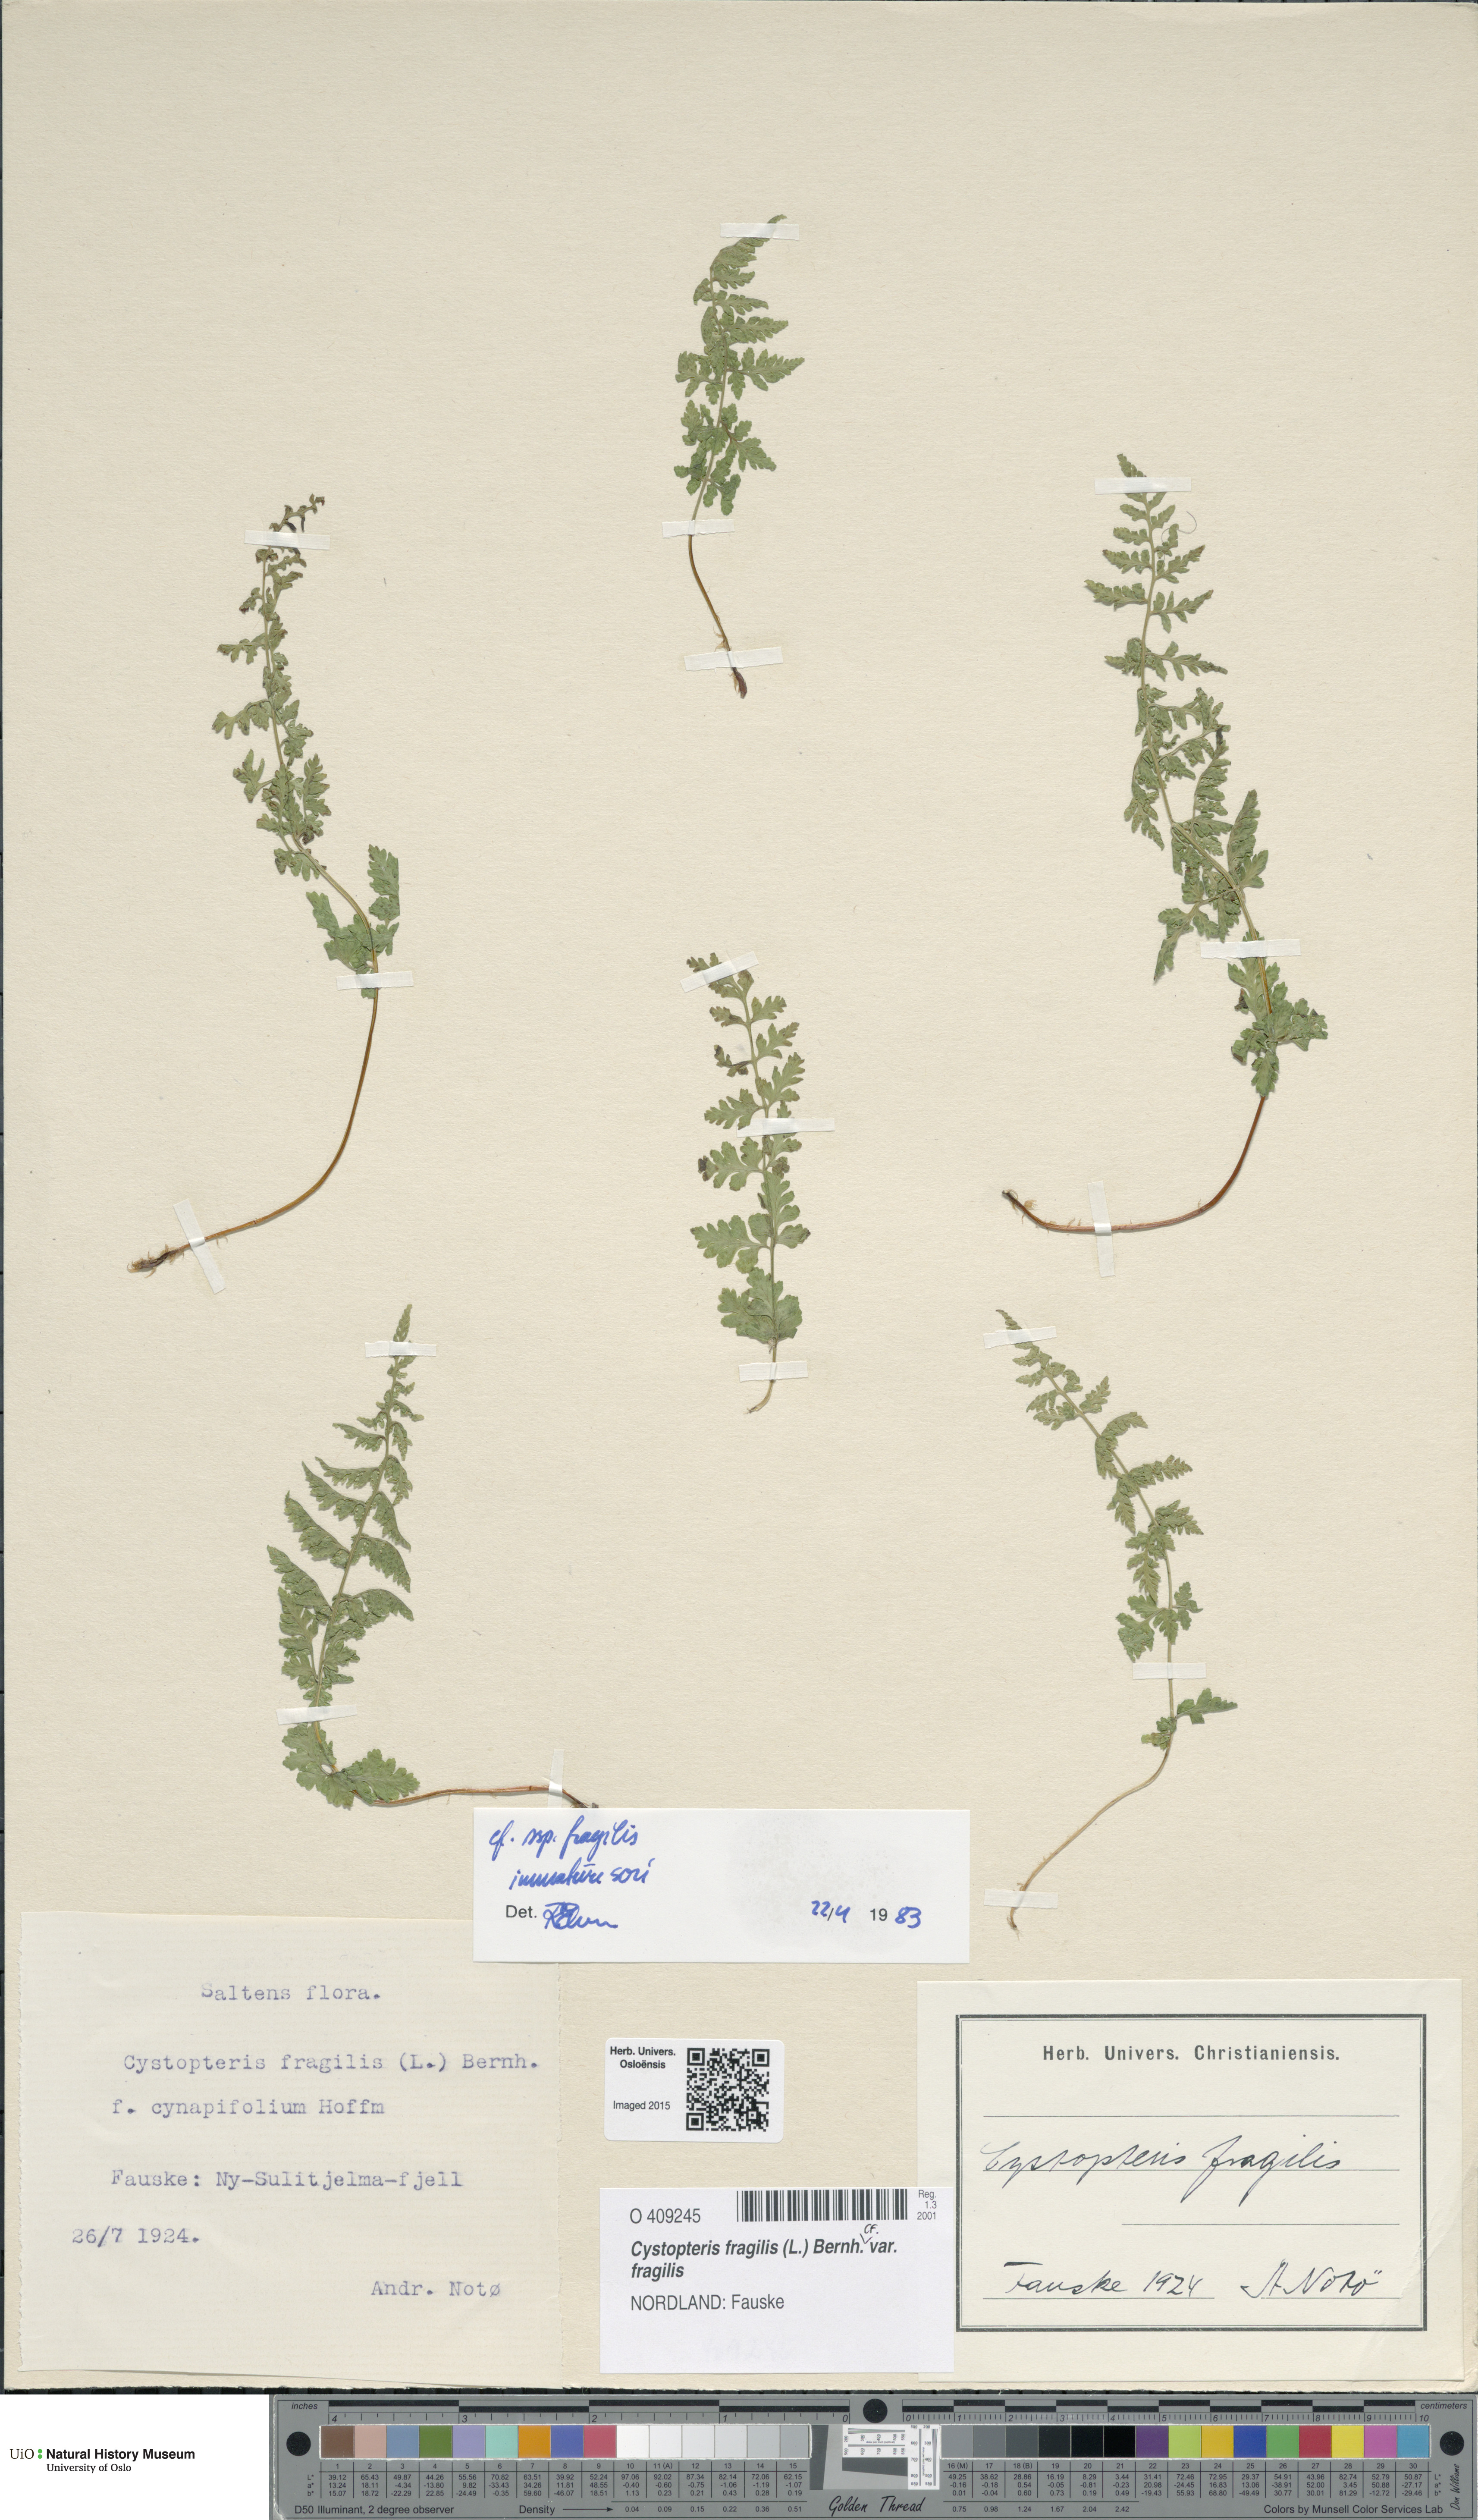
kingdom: Plantae
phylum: Tracheophyta
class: Polypodiopsida
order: Polypodiales
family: Cystopteridaceae
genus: Cystopteris
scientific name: Cystopteris fragilis
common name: Brittle bladder fern
